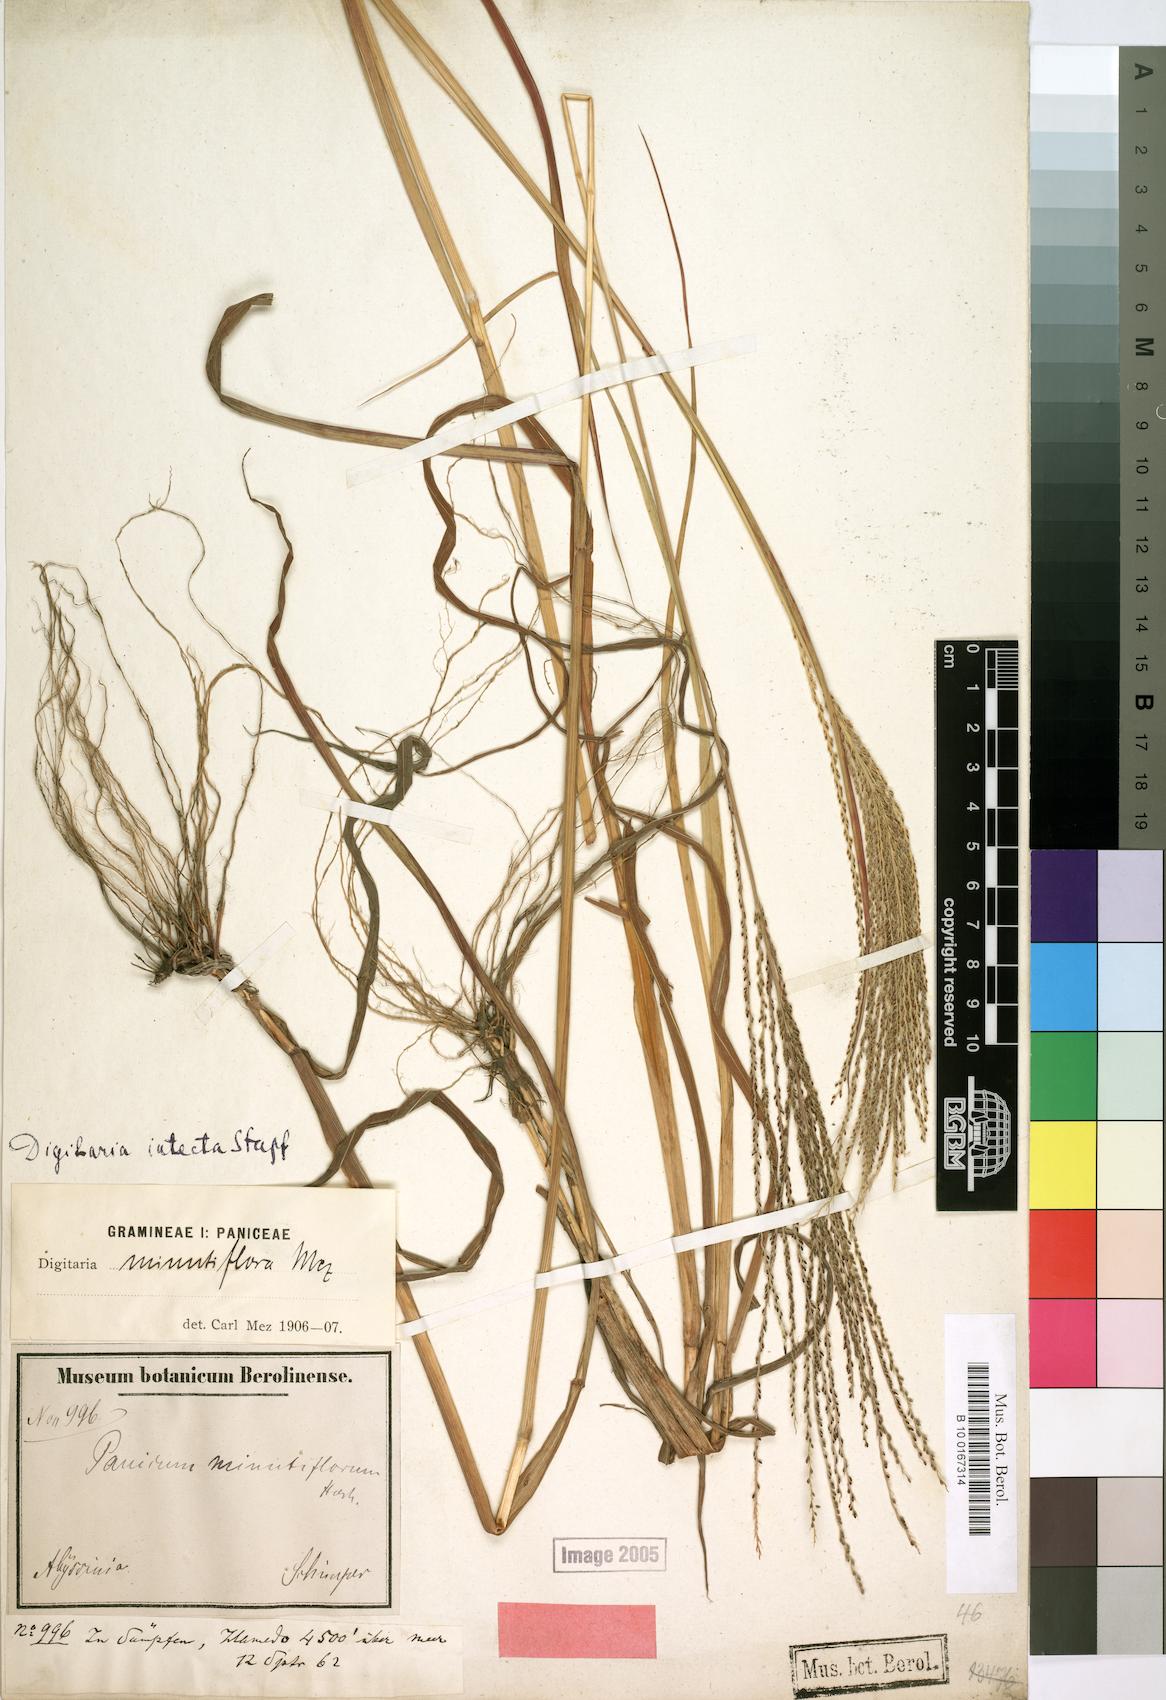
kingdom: Plantae
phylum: Tracheophyta
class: Liliopsida
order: Poales
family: Poaceae
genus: Digitaria
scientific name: Digitaria intecta
